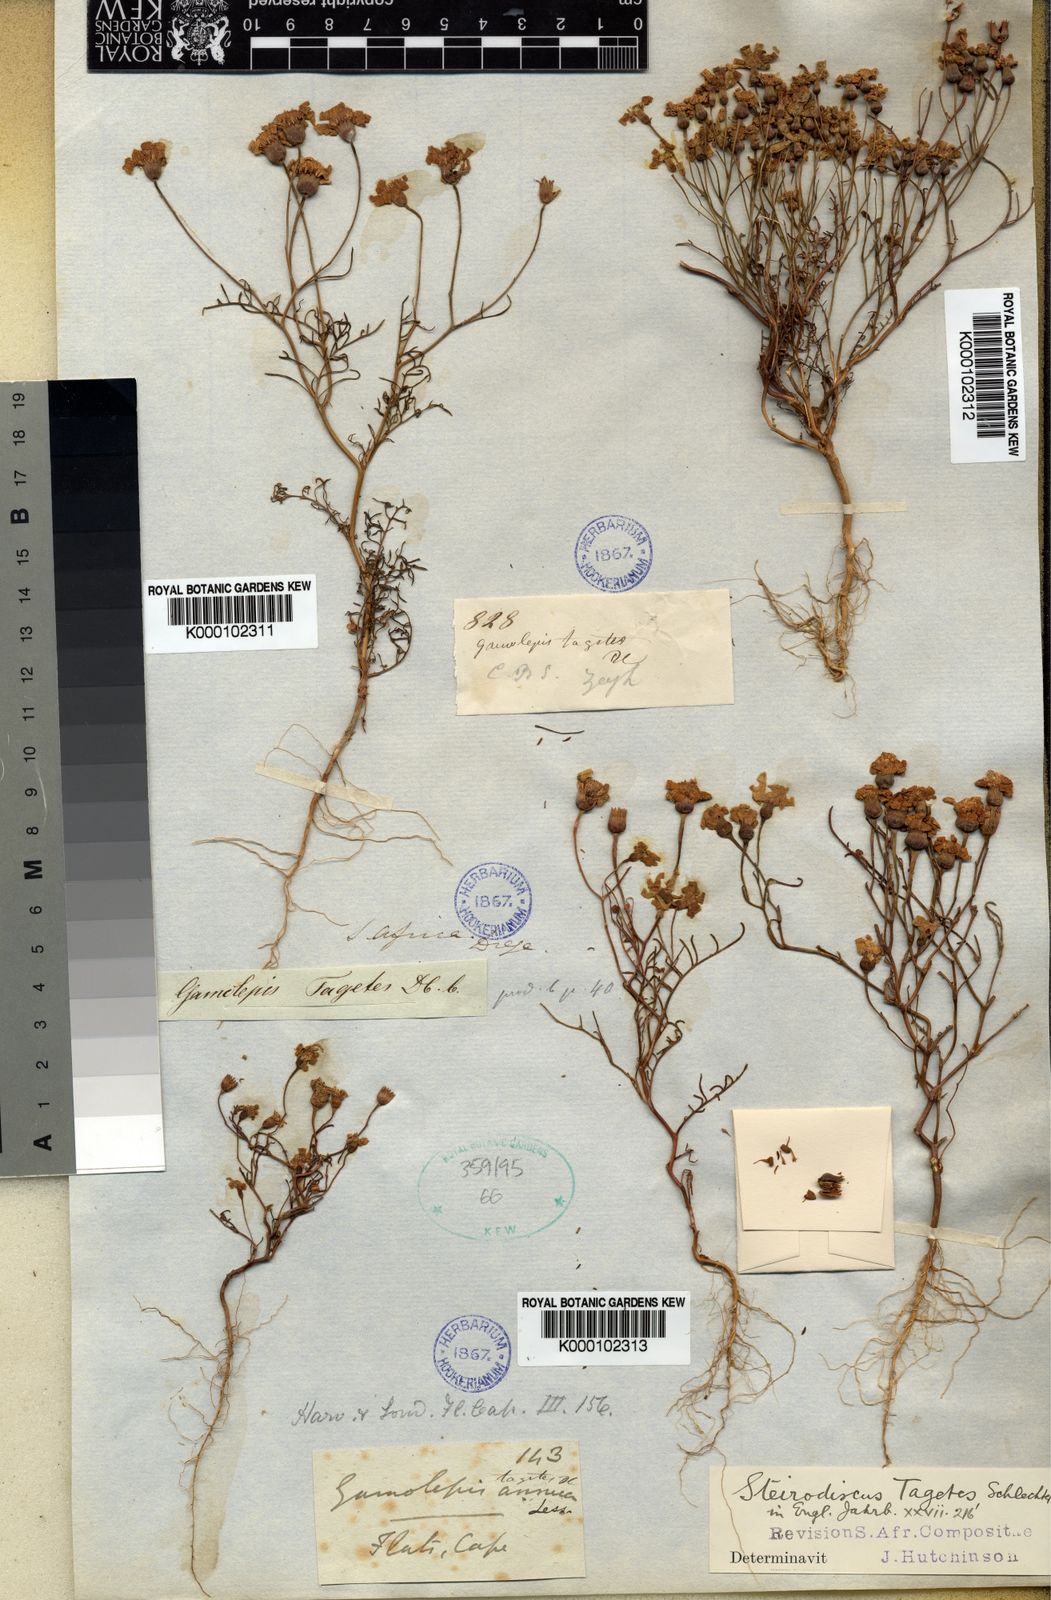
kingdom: Plantae
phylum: Tracheophyta
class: Magnoliopsida
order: Asterales
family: Asteraceae
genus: Steirodiscus
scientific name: Steirodiscus tagetes
